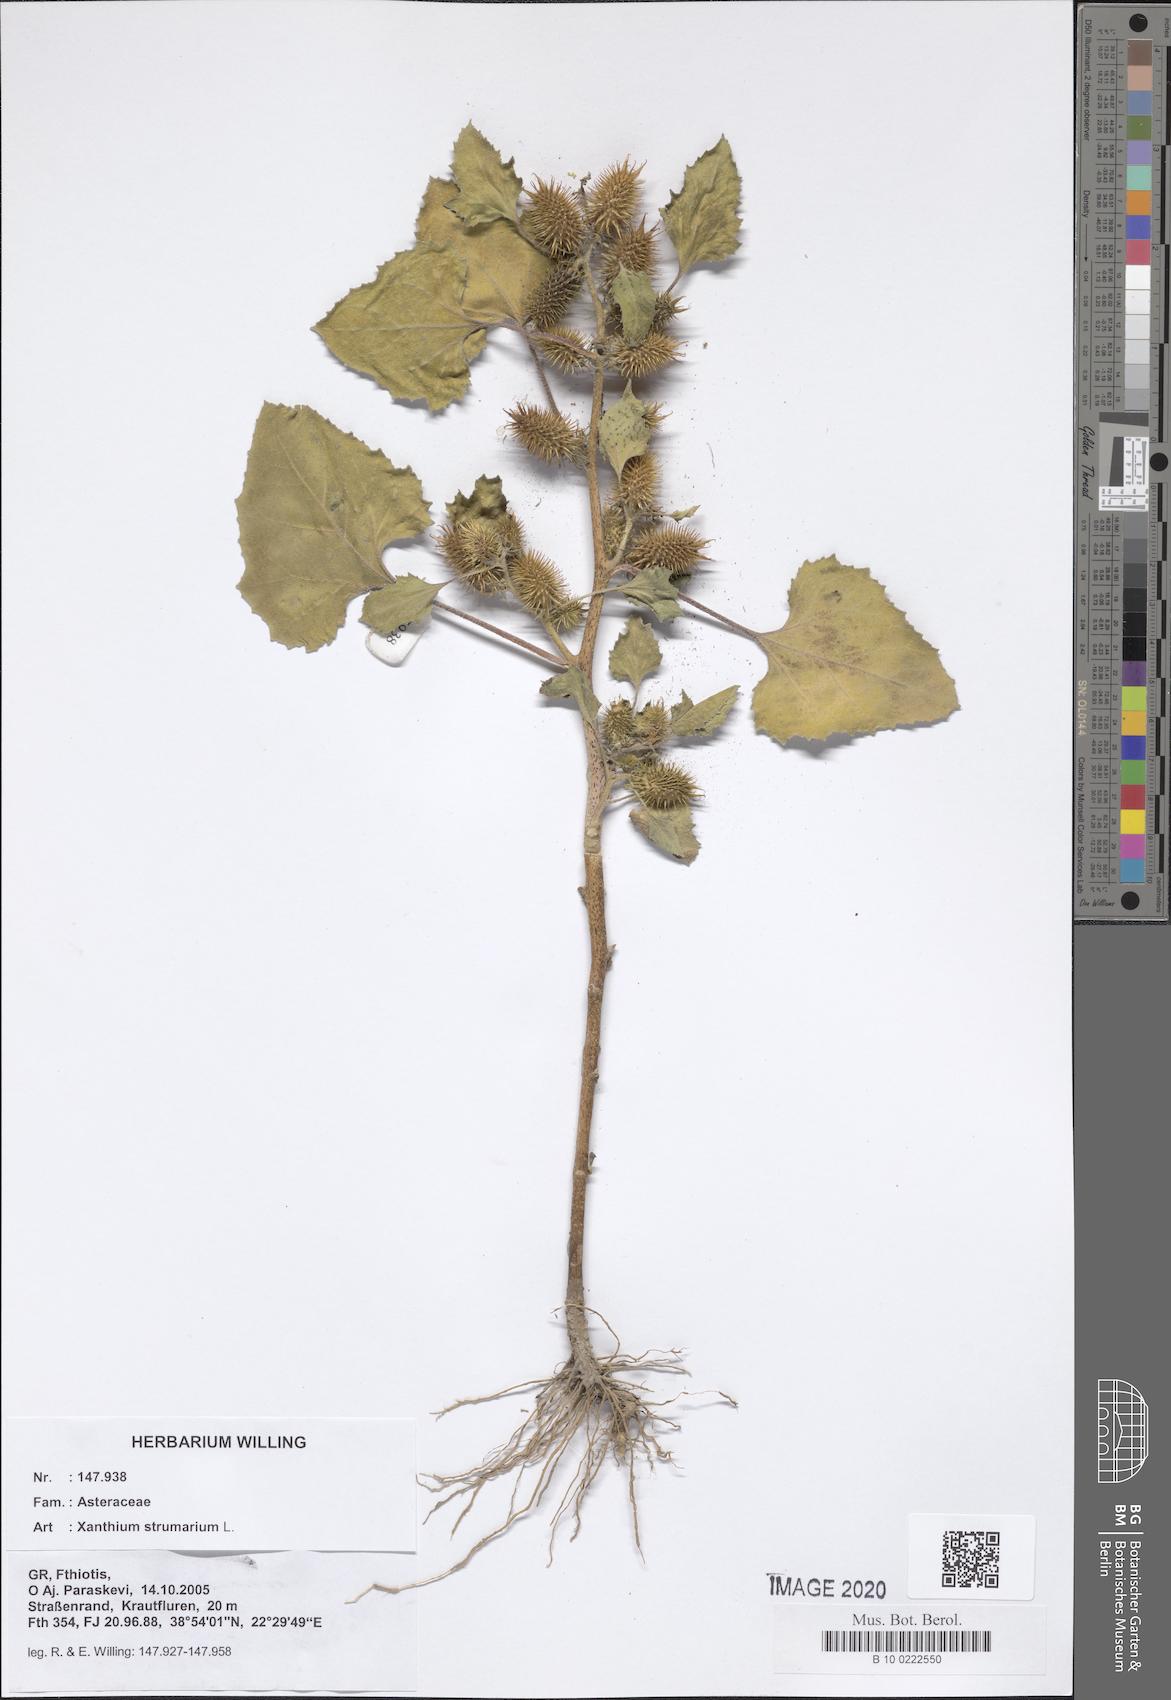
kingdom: Plantae
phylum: Tracheophyta
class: Magnoliopsida
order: Asterales
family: Asteraceae
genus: Xanthium
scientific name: Xanthium strumarium
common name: Rough cocklebur
